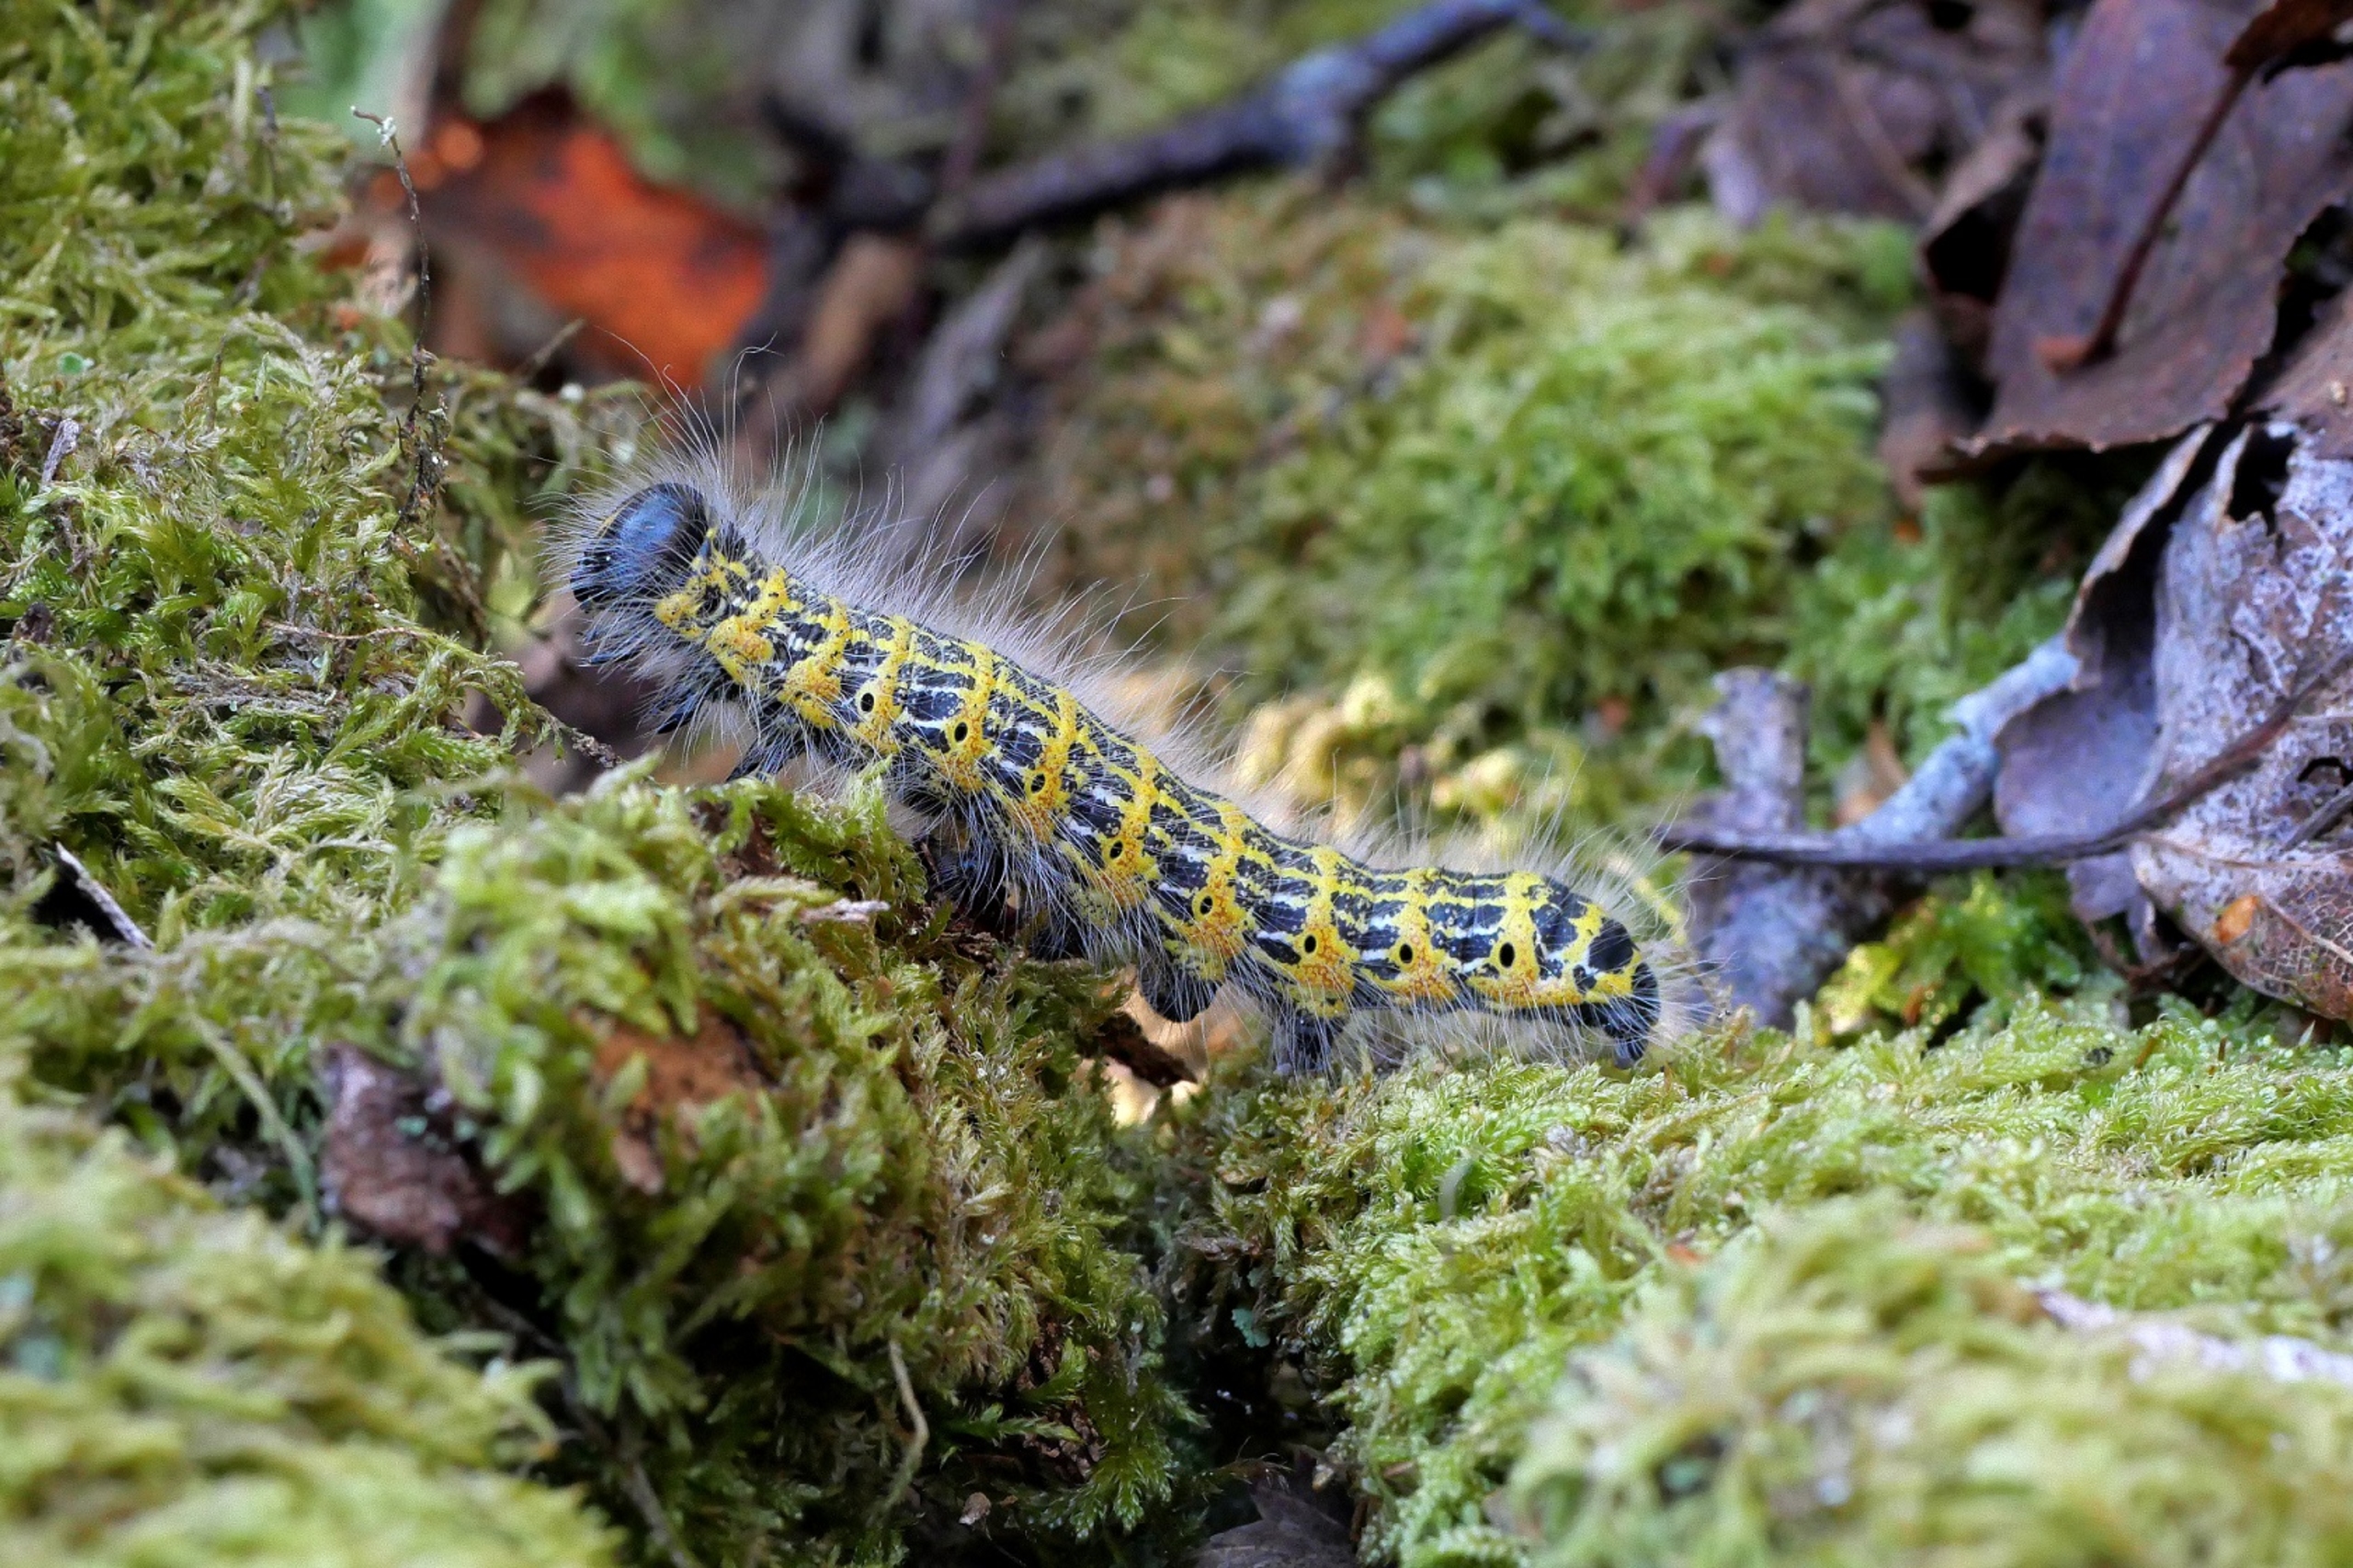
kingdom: Animalia
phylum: Arthropoda
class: Insecta
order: Lepidoptera
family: Notodontidae
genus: Phalera
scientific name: Phalera bucephala
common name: Måneplet
